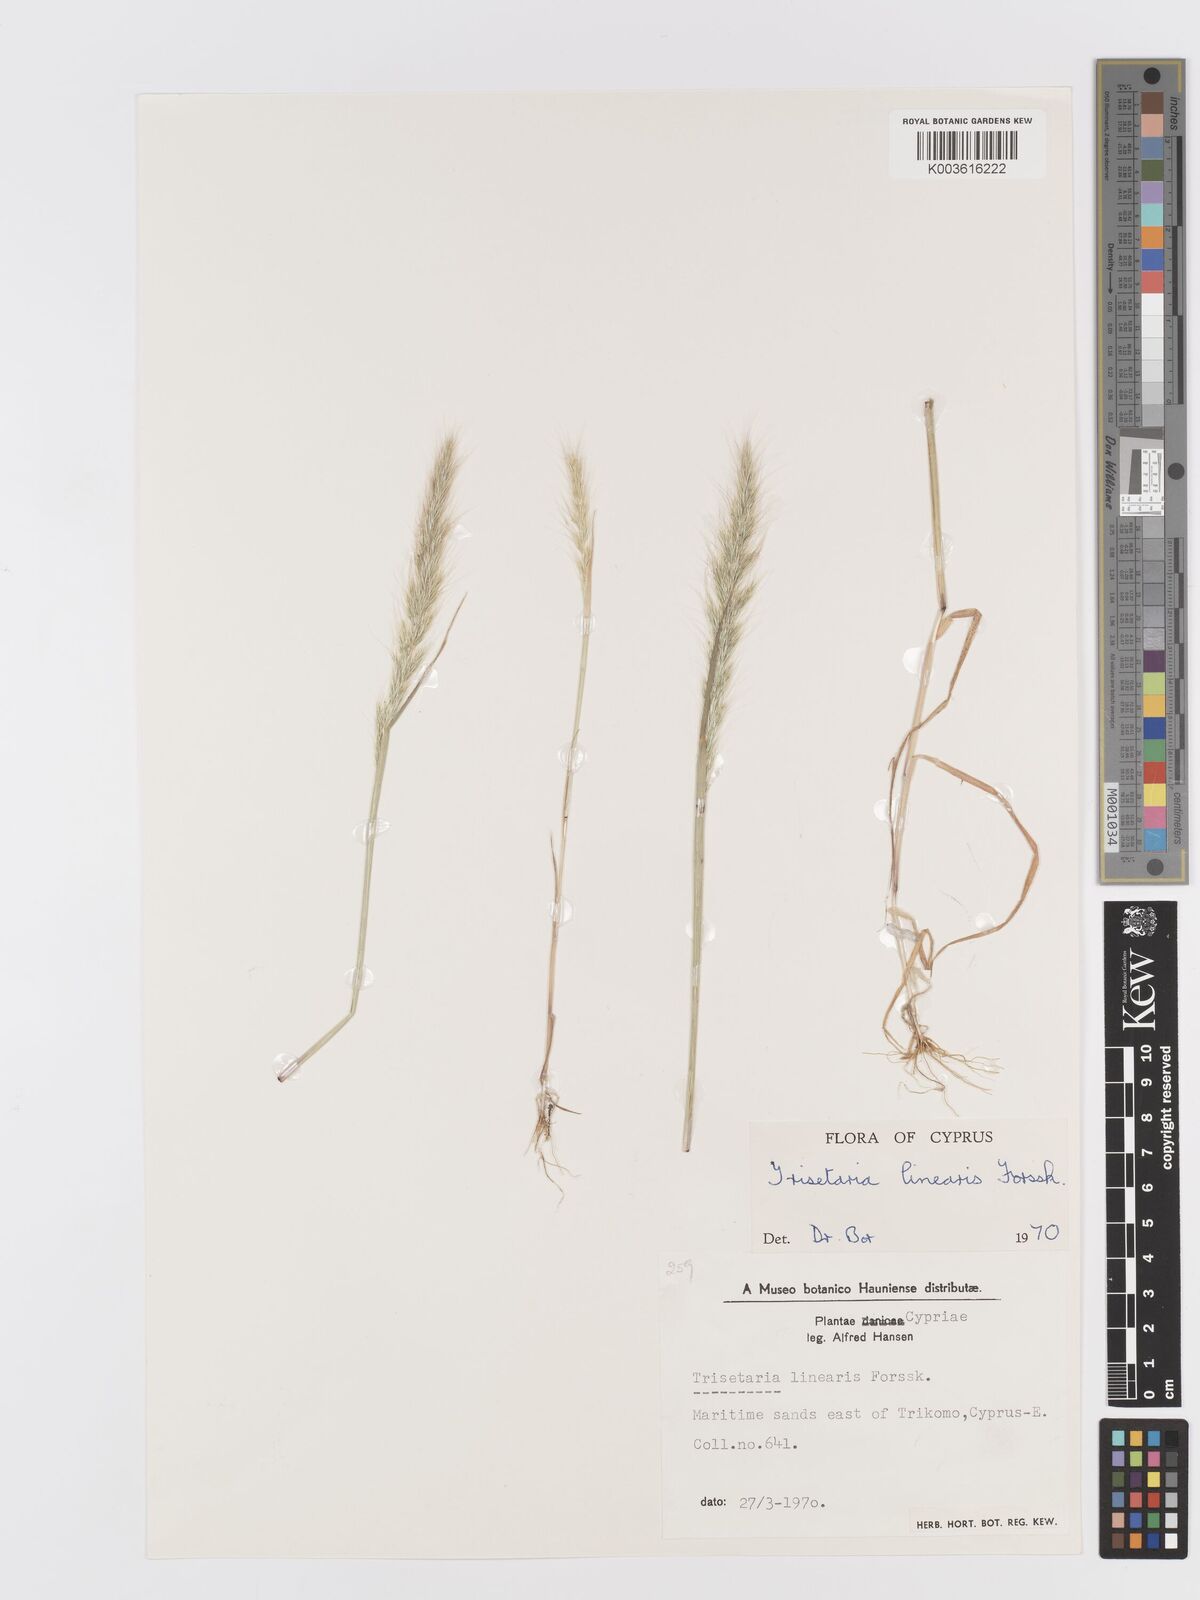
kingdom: Plantae
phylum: Tracheophyta
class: Liliopsida
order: Poales
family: Poaceae
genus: Trisetaria
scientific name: Trisetaria linearis
